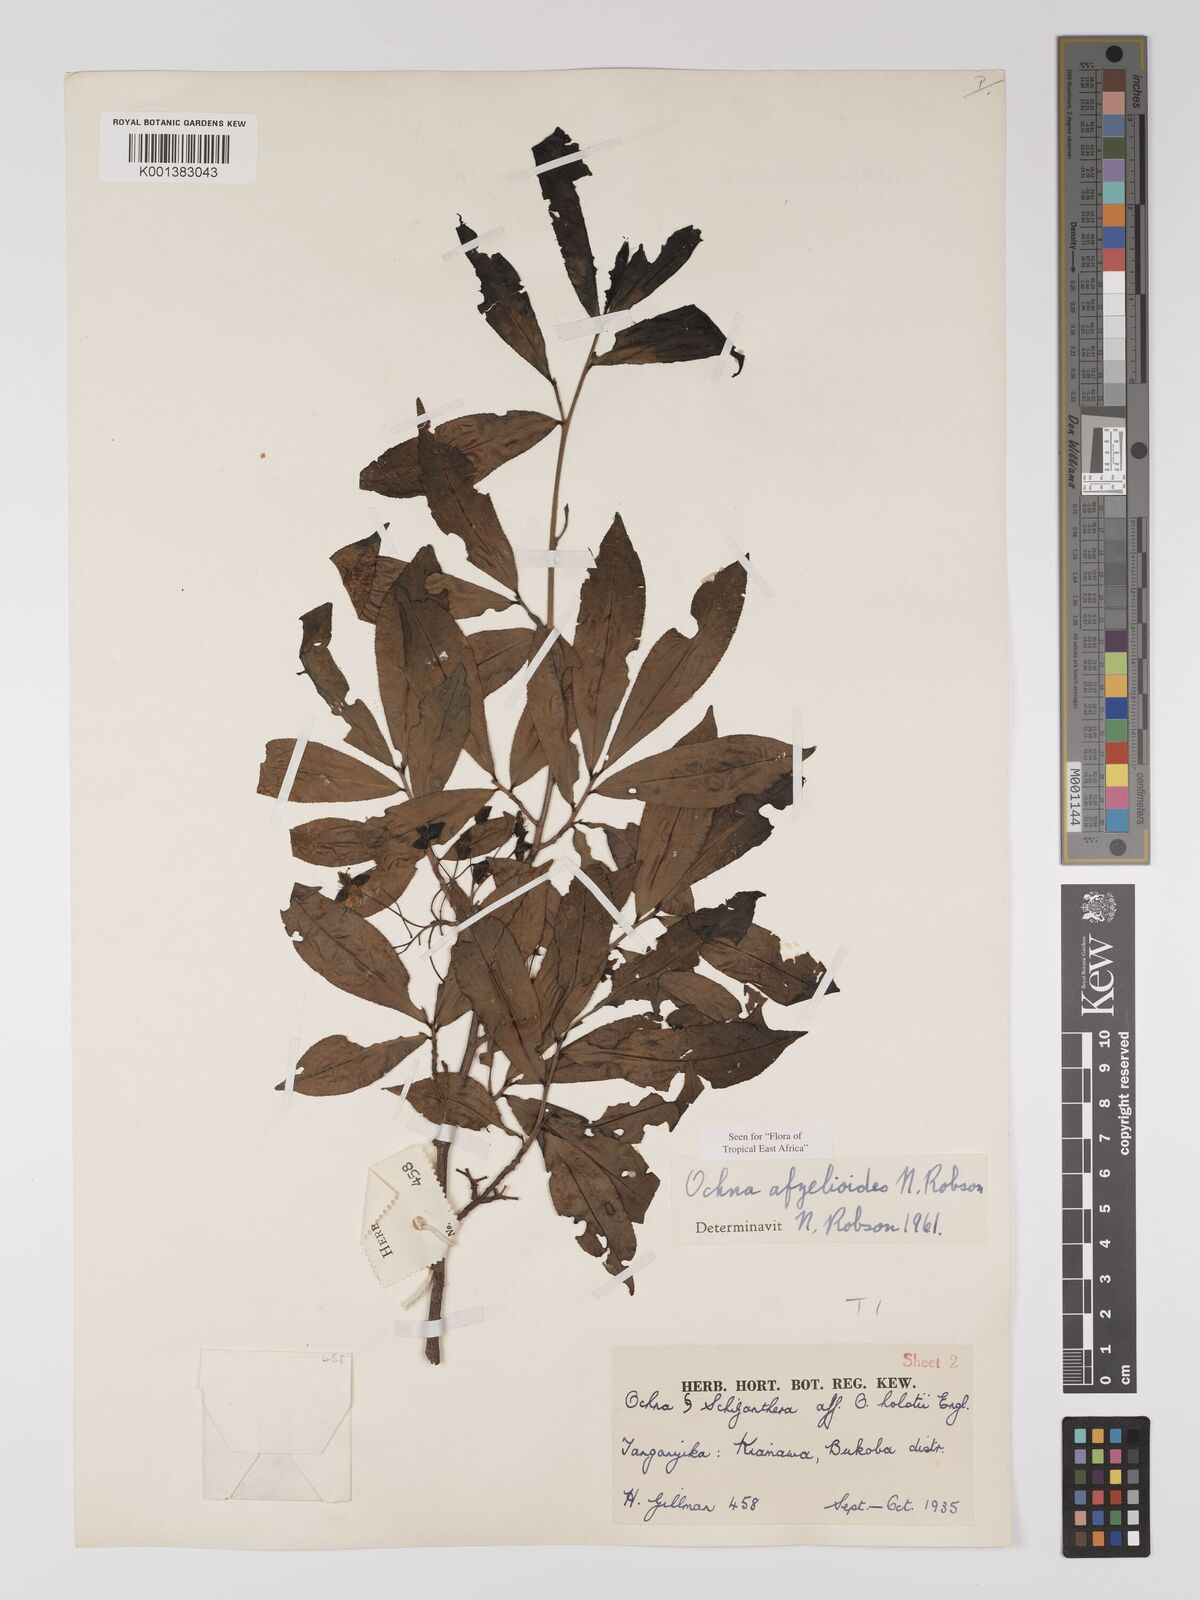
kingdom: Plantae
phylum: Tracheophyta
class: Magnoliopsida
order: Malpighiales
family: Ochnaceae
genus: Ochna
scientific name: Ochna afzelioides
